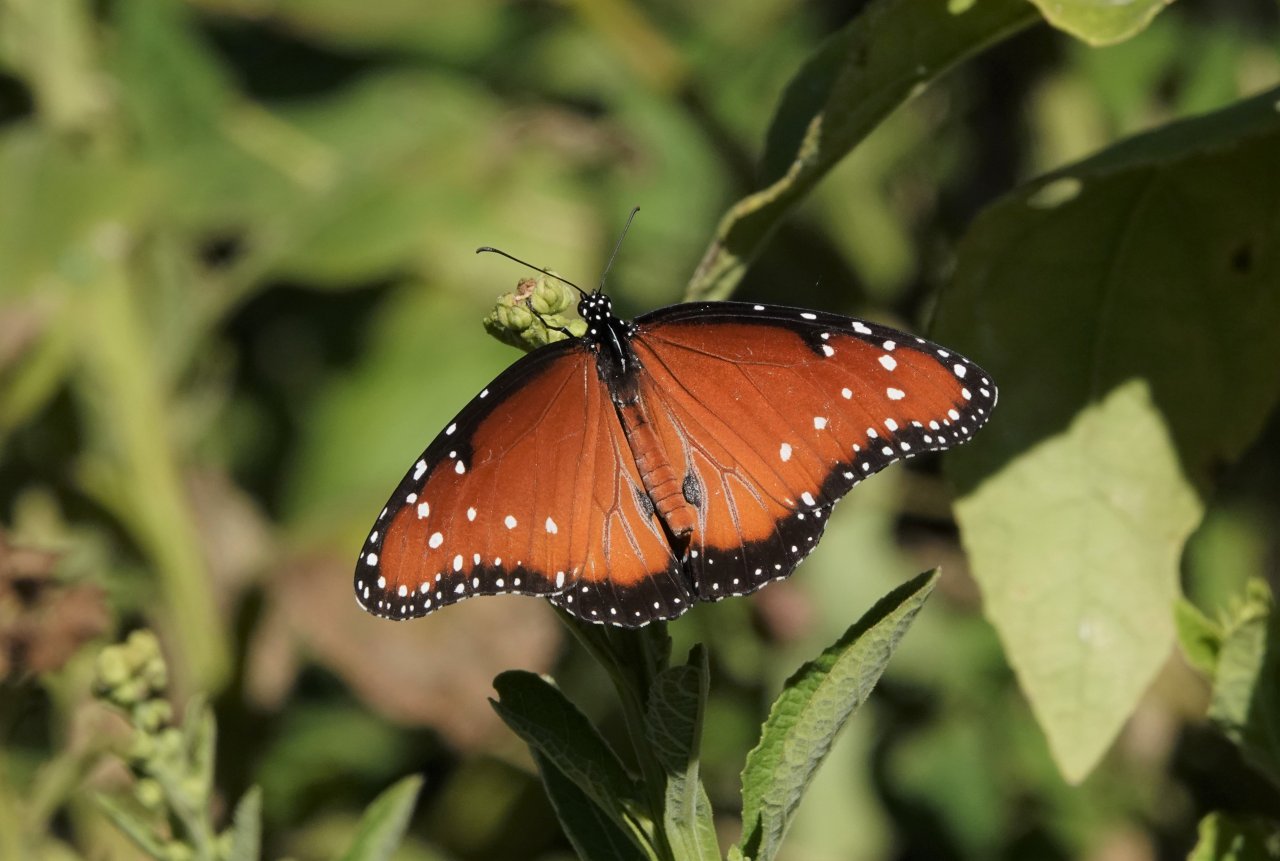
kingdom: Animalia
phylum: Arthropoda
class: Insecta
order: Lepidoptera
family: Nymphalidae
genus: Danaus
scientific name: Danaus gilippus
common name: Queen
